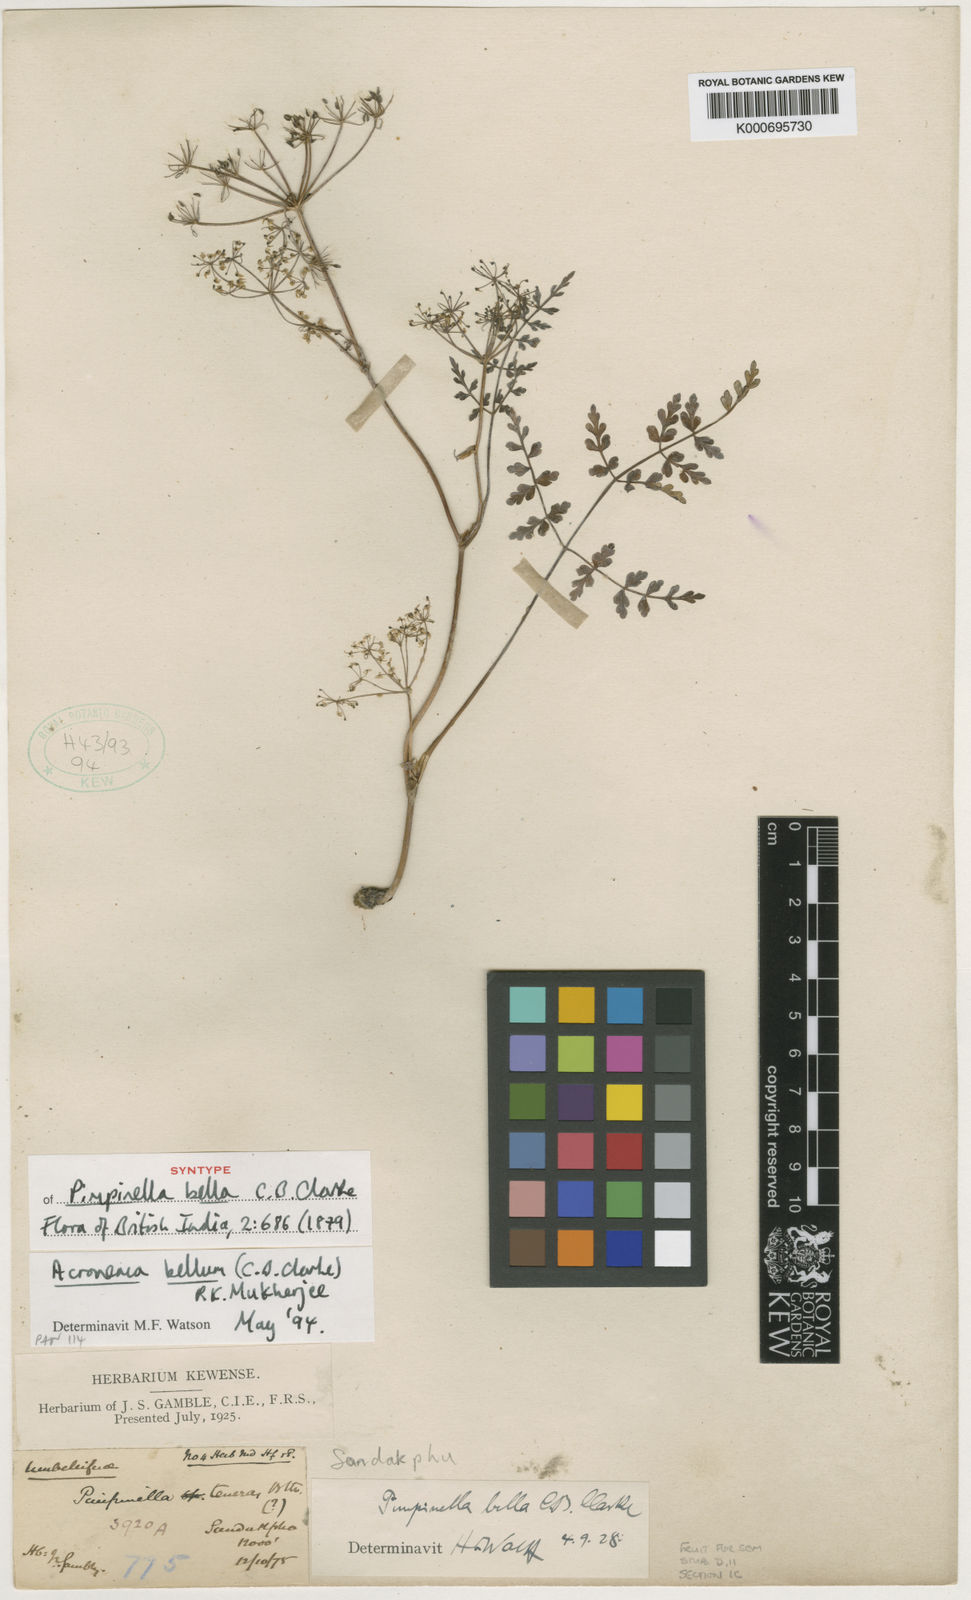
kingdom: Plantae
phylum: Tracheophyta
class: Magnoliopsida
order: Apiales
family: Apiaceae
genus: Sinocarum
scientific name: Sinocarum bellum
